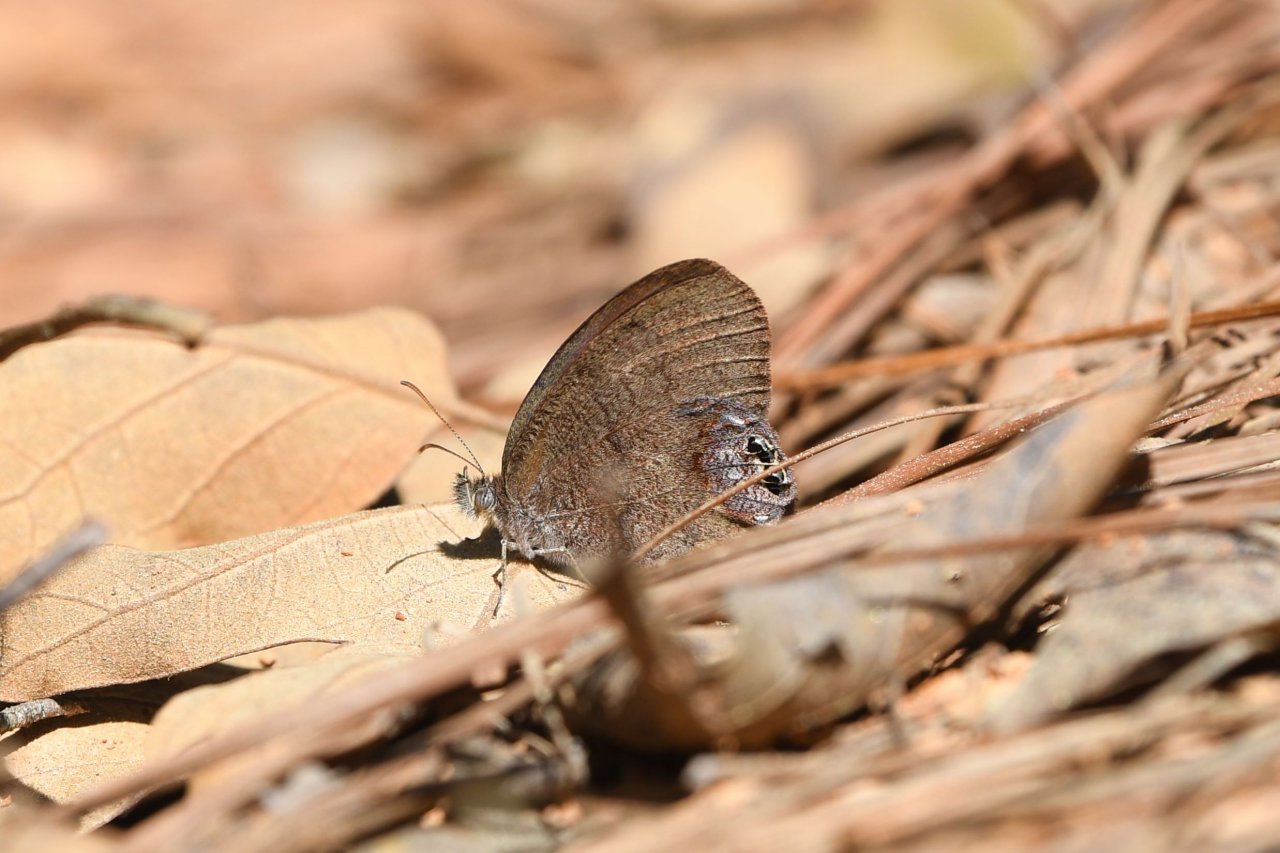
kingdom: Animalia
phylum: Arthropoda
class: Insecta
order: Lepidoptera
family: Nymphalidae
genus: Euptychia
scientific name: Euptychia cornelius
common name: Gemmed Satyr
